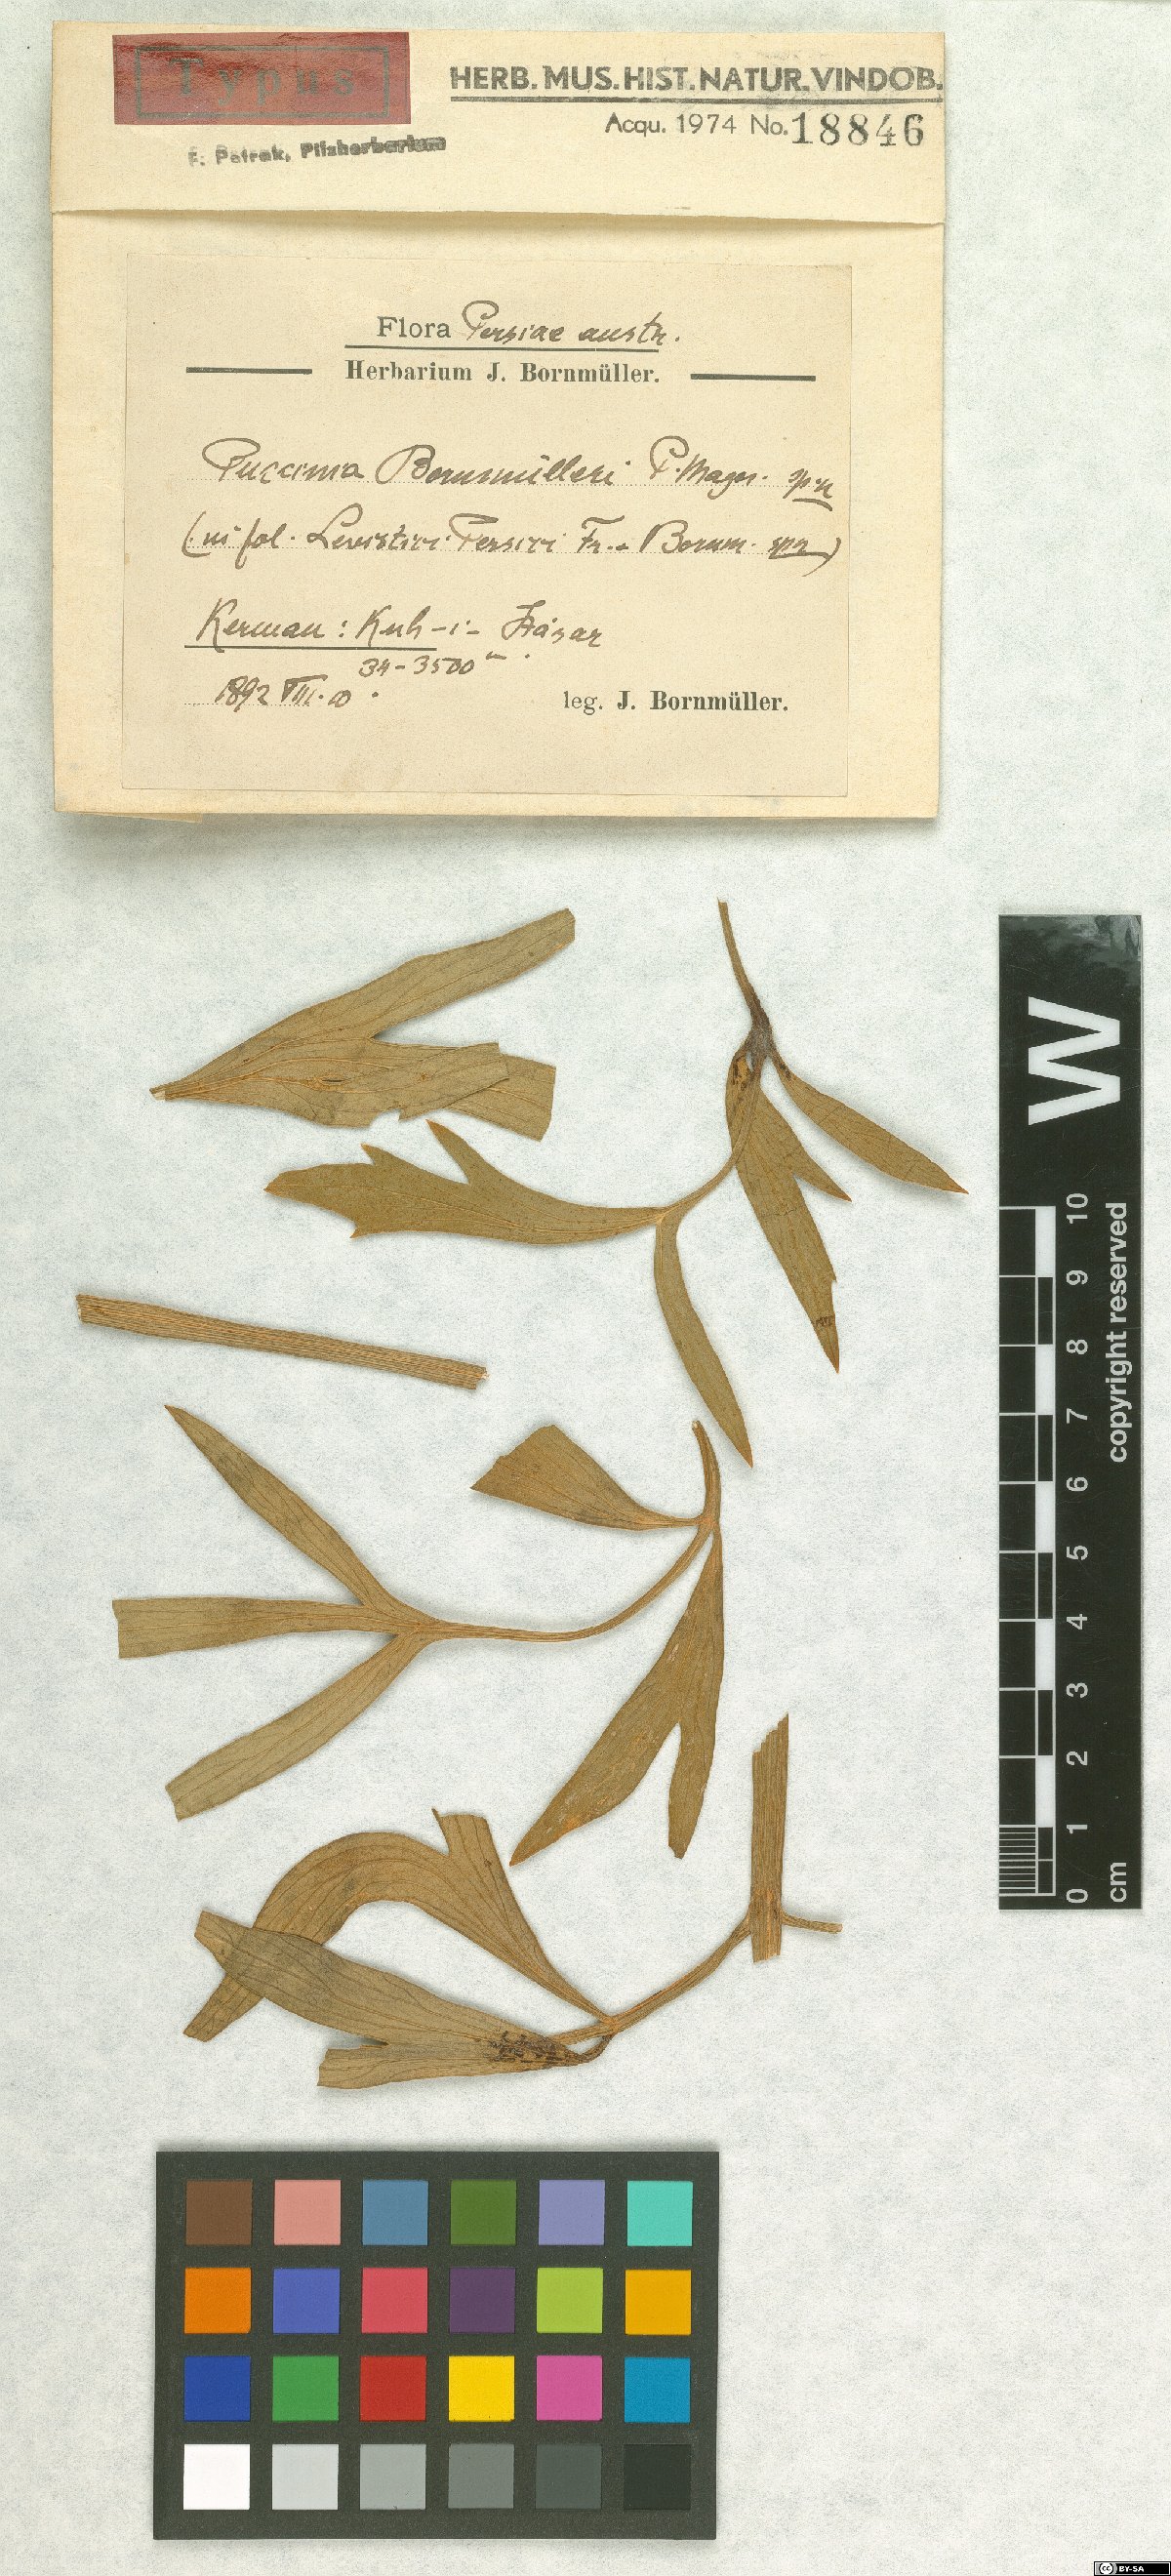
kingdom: Fungi
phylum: Basidiomycota
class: Pucciniomycetes
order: Pucciniales
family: Pucciniaceae
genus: Puccinia
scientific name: Puccinia bornmuelleri
